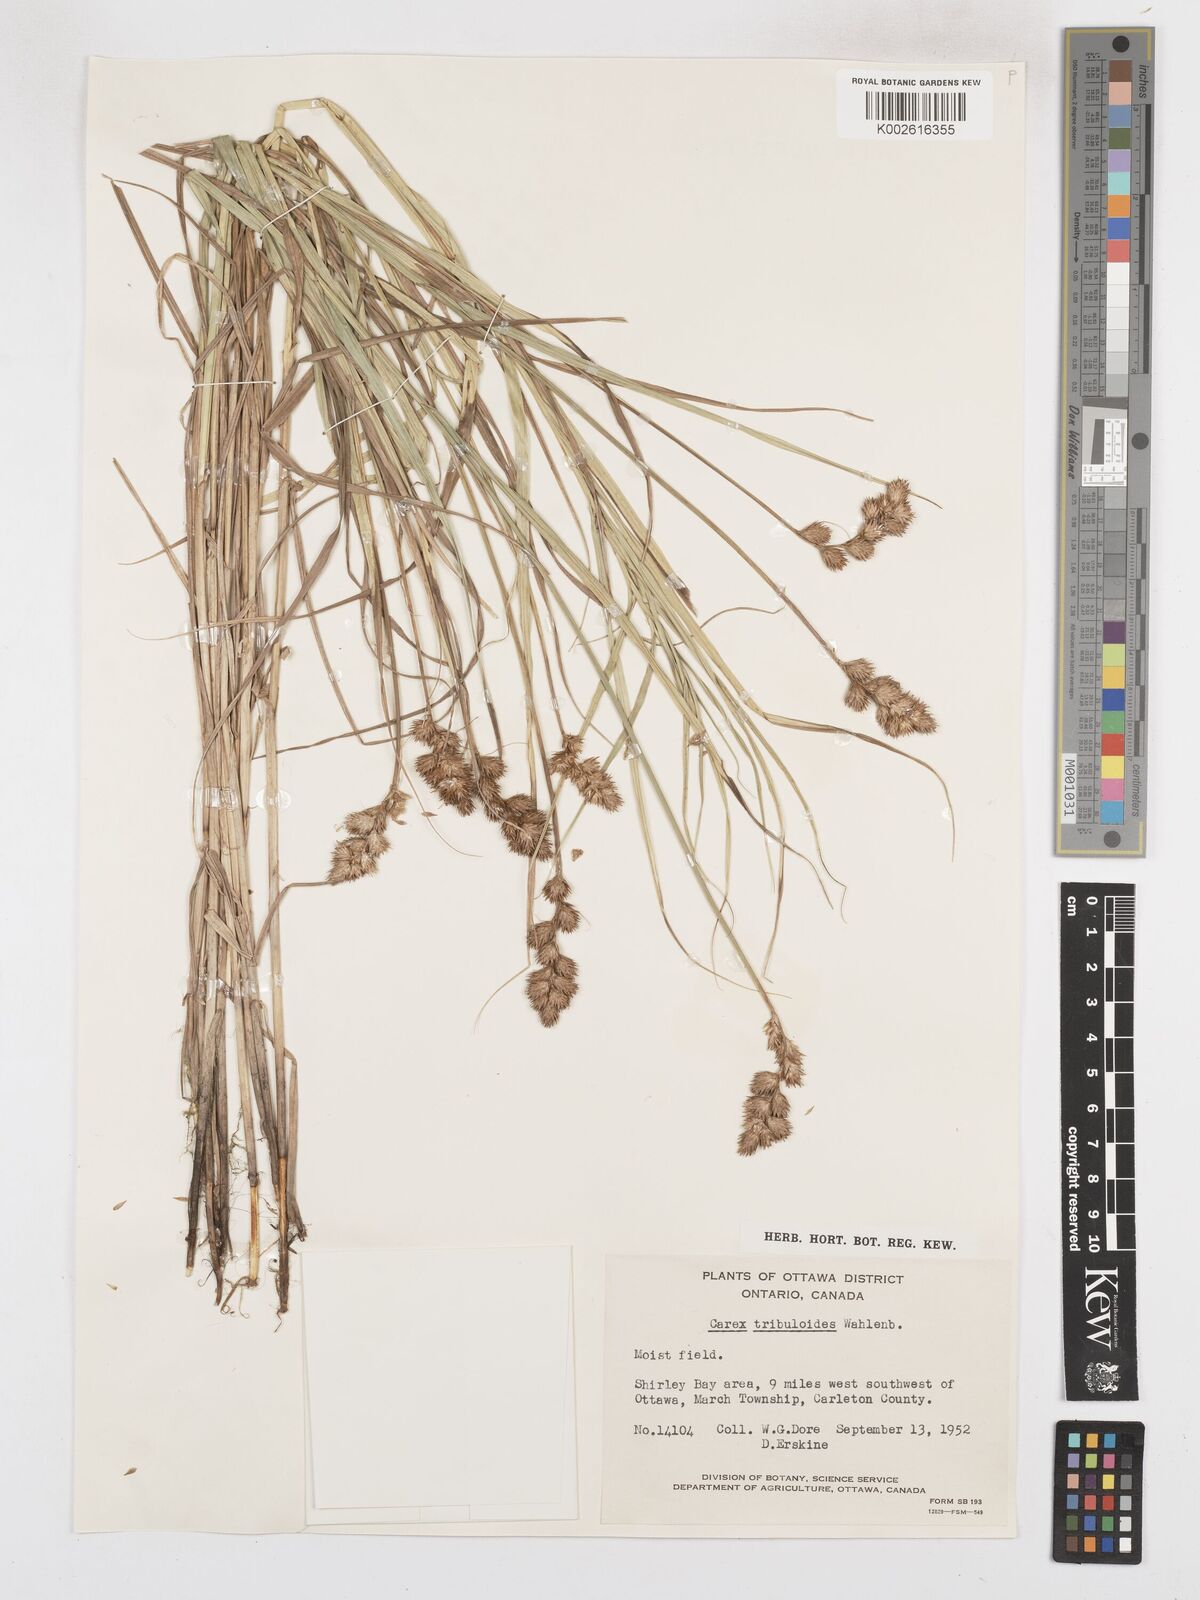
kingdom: Plantae
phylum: Tracheophyta
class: Liliopsida
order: Poales
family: Cyperaceae
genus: Carex
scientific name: Carex tribuloides
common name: Blunt broom sedge
